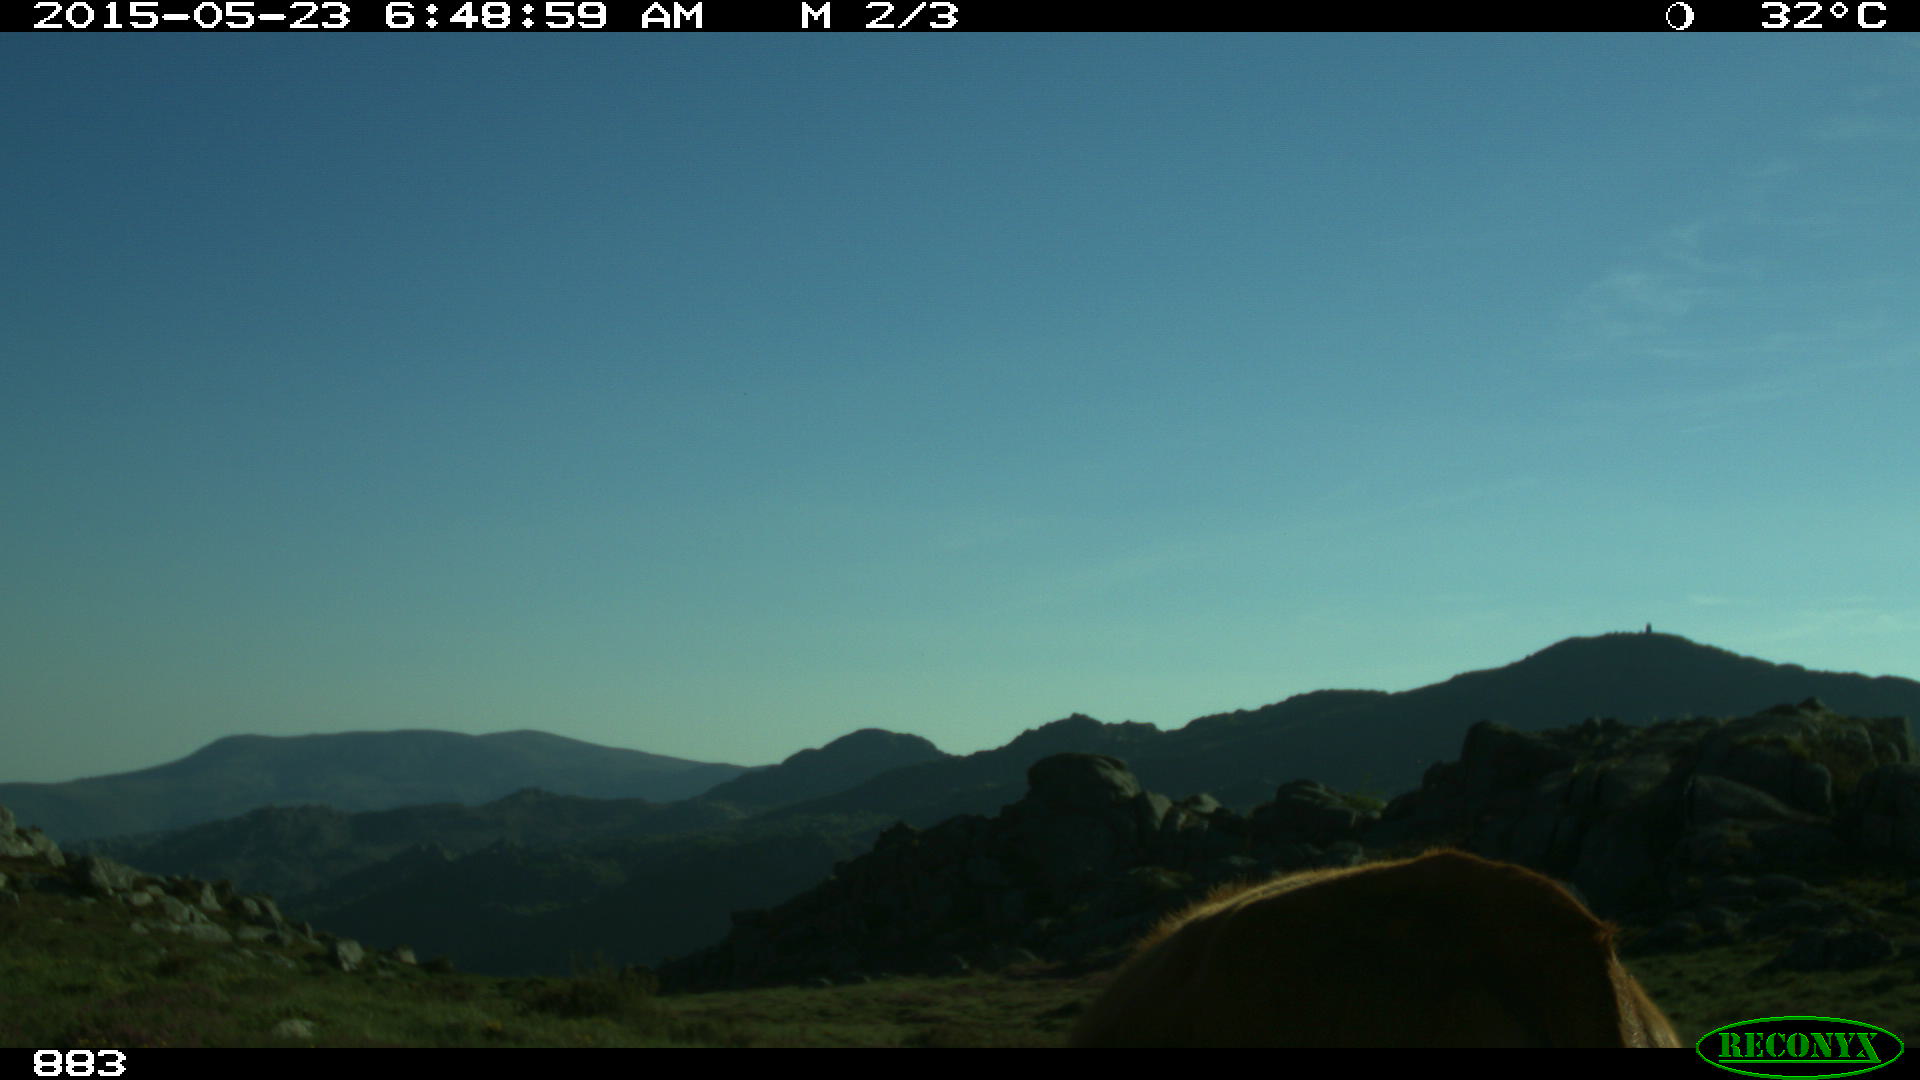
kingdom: Animalia
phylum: Chordata
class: Mammalia
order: Artiodactyla
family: Bovidae
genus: Bos
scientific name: Bos taurus
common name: Domesticated cattle
